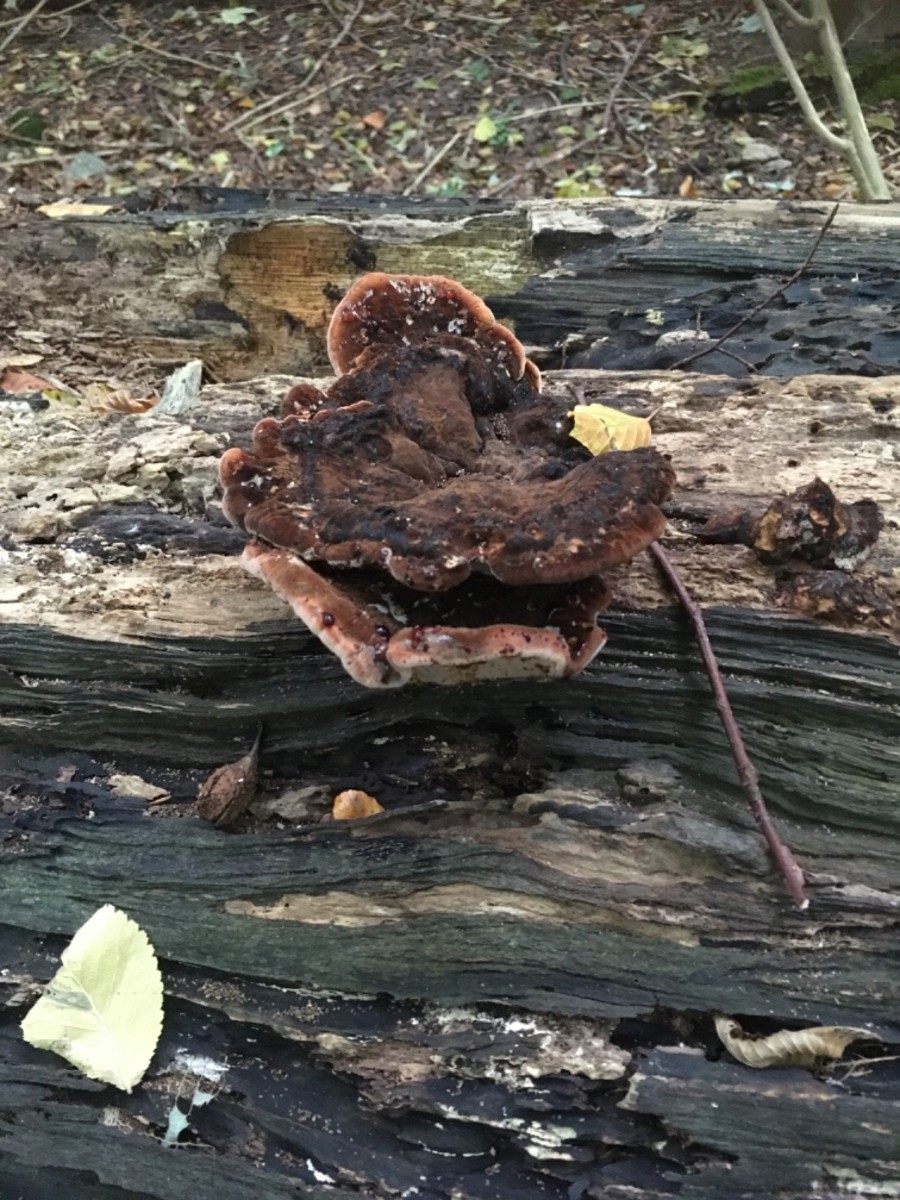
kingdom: Fungi
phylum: Basidiomycota
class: Agaricomycetes
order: Polyporales
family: Ischnodermataceae
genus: Ischnoderma
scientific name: Ischnoderma resinosum
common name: løv-tjæreporesvamp
